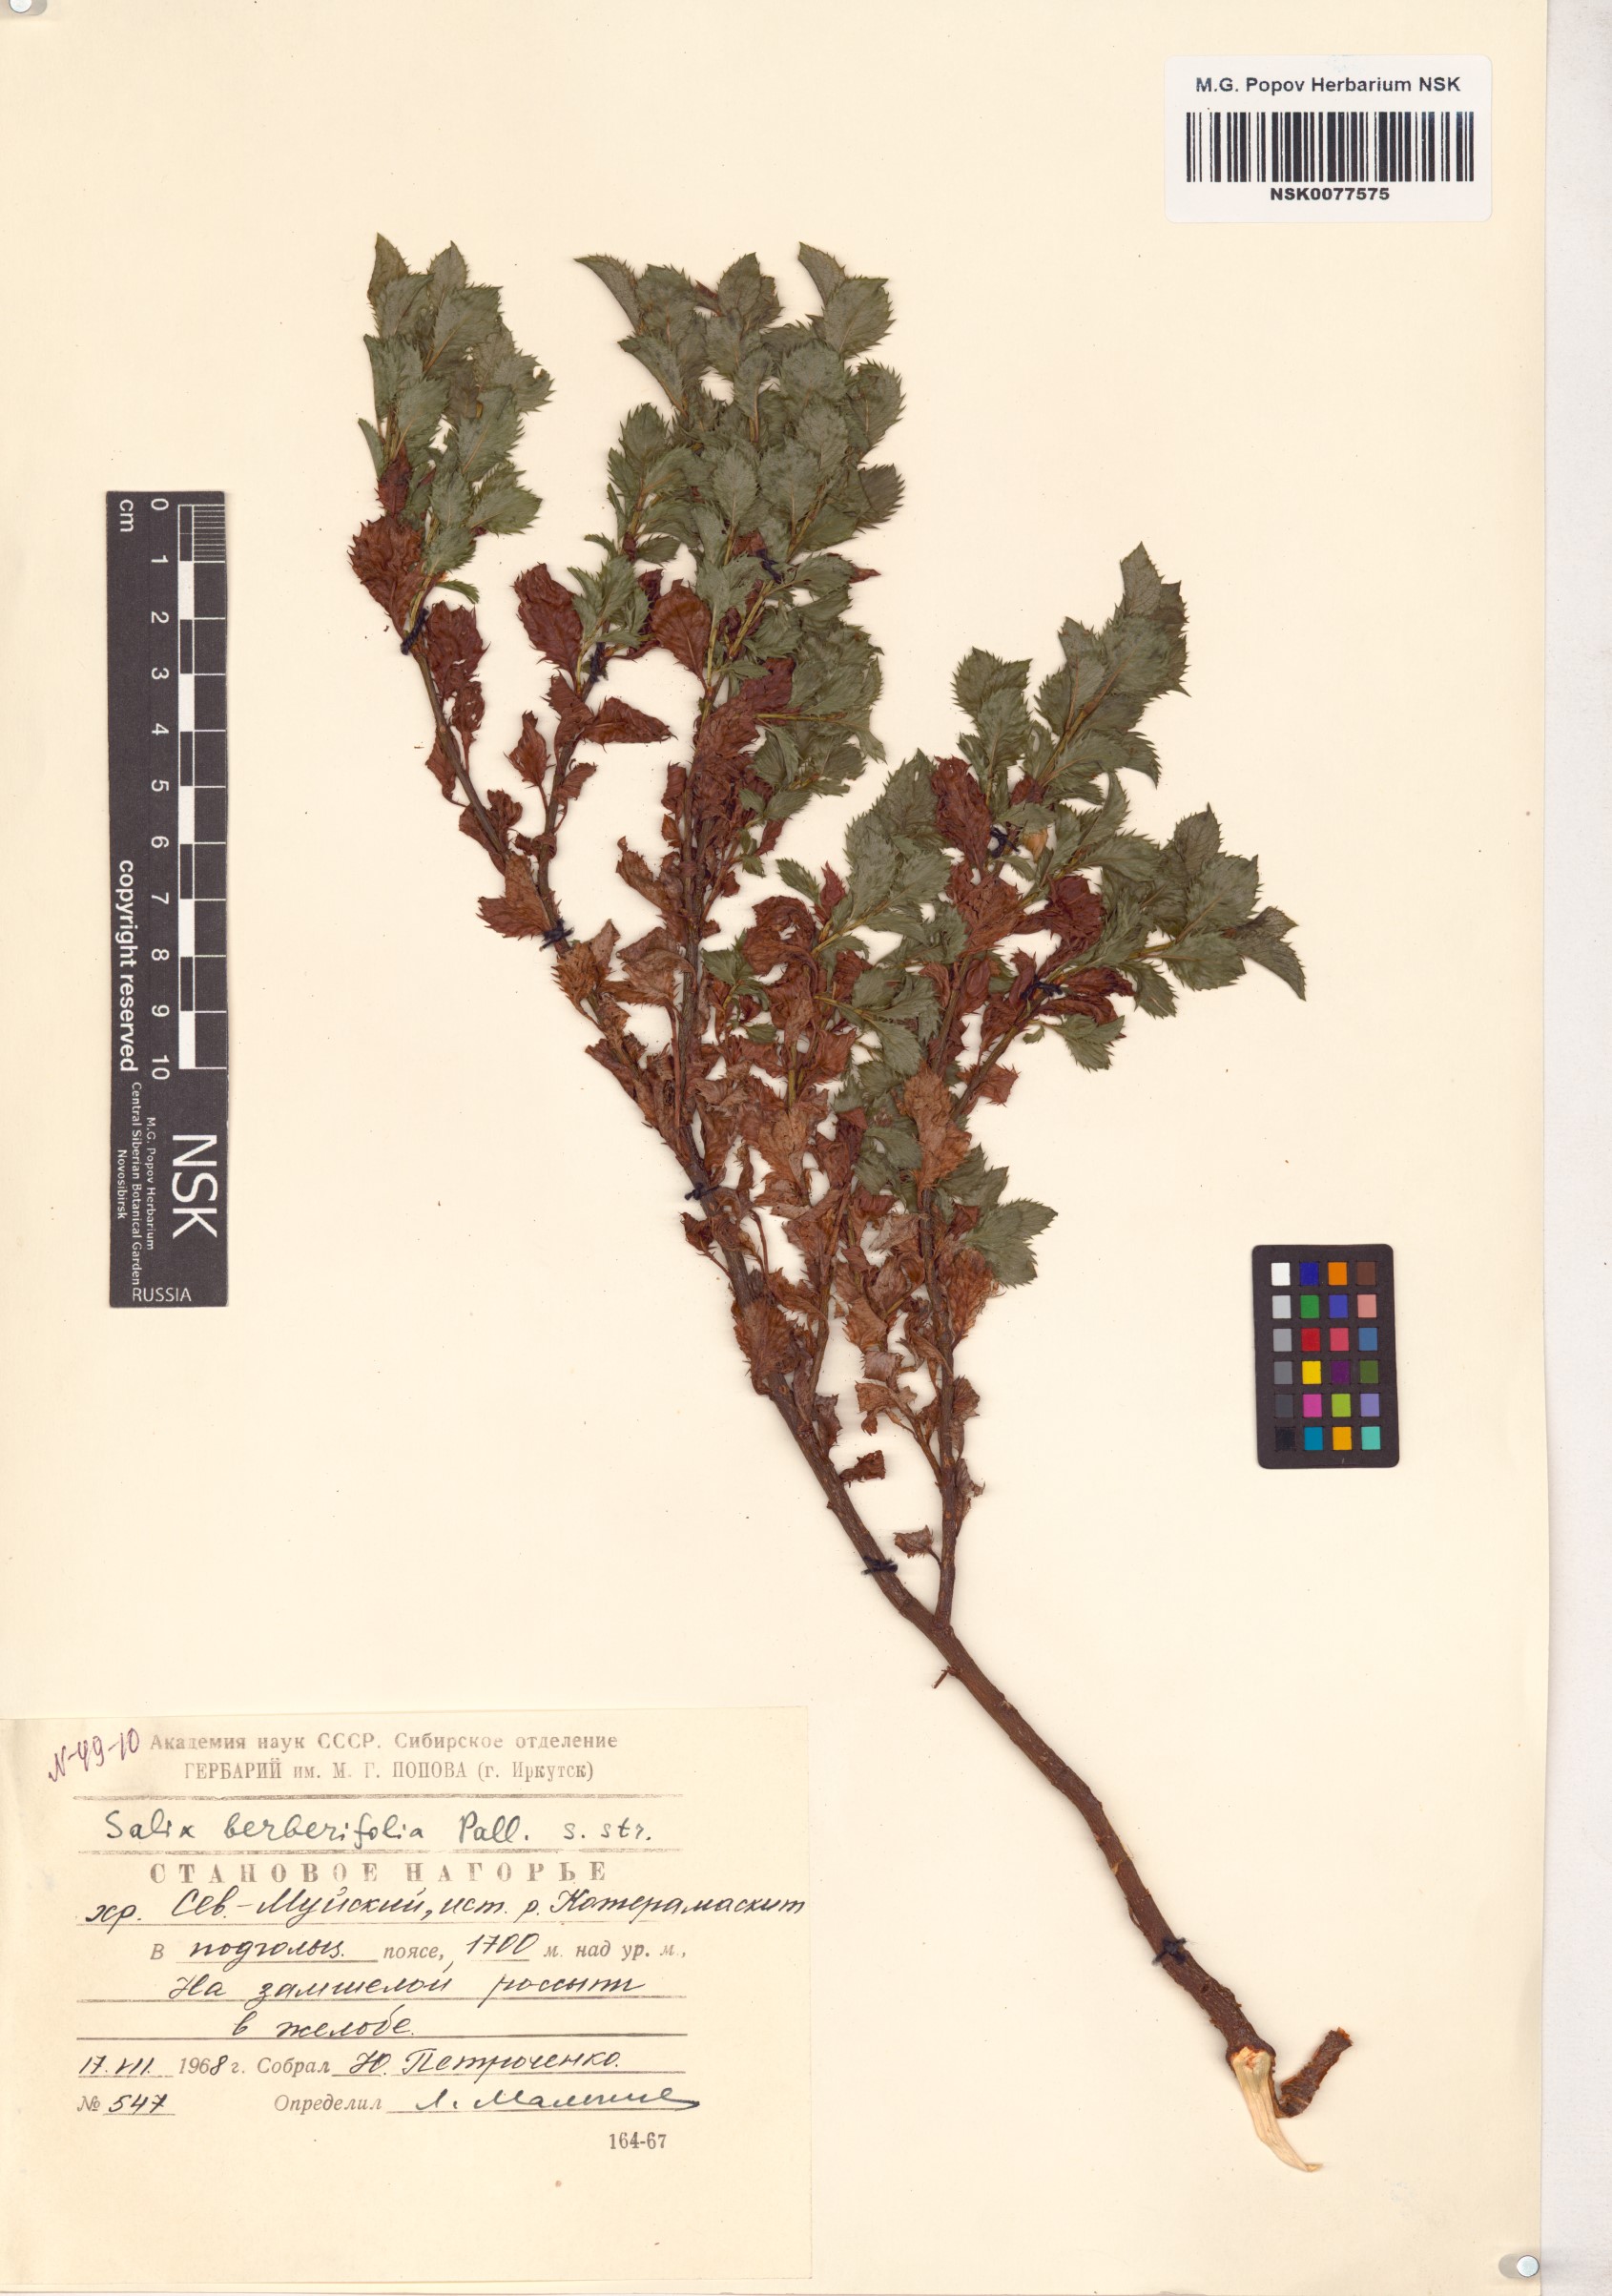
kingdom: Plantae
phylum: Tracheophyta
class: Magnoliopsida
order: Malpighiales
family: Salicaceae
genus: Salix
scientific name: Salix berberifolia
